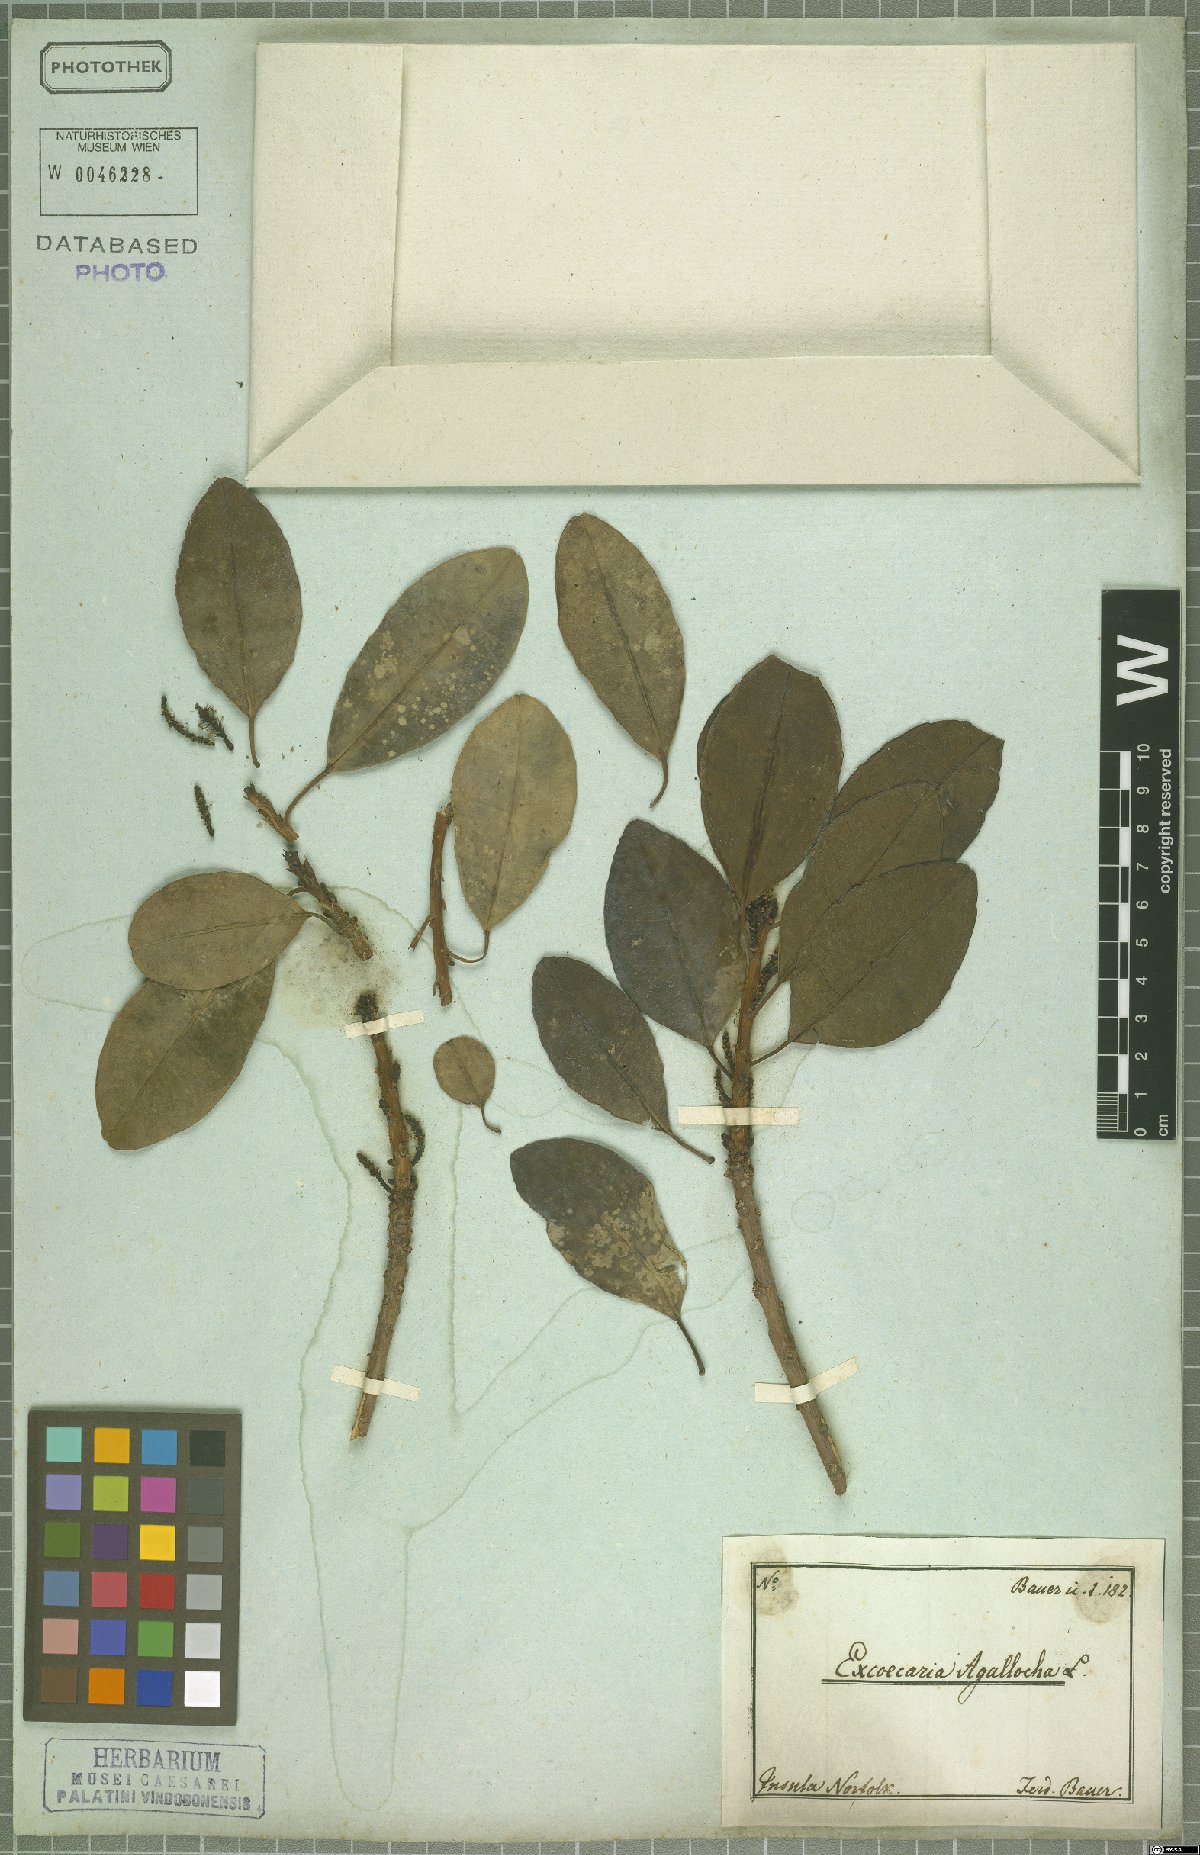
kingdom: Plantae
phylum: Tracheophyta
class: Magnoliopsida
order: Malpighiales
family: Euphorbiaceae
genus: Excoecaria
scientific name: Excoecaria agallocha
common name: River poisontree
